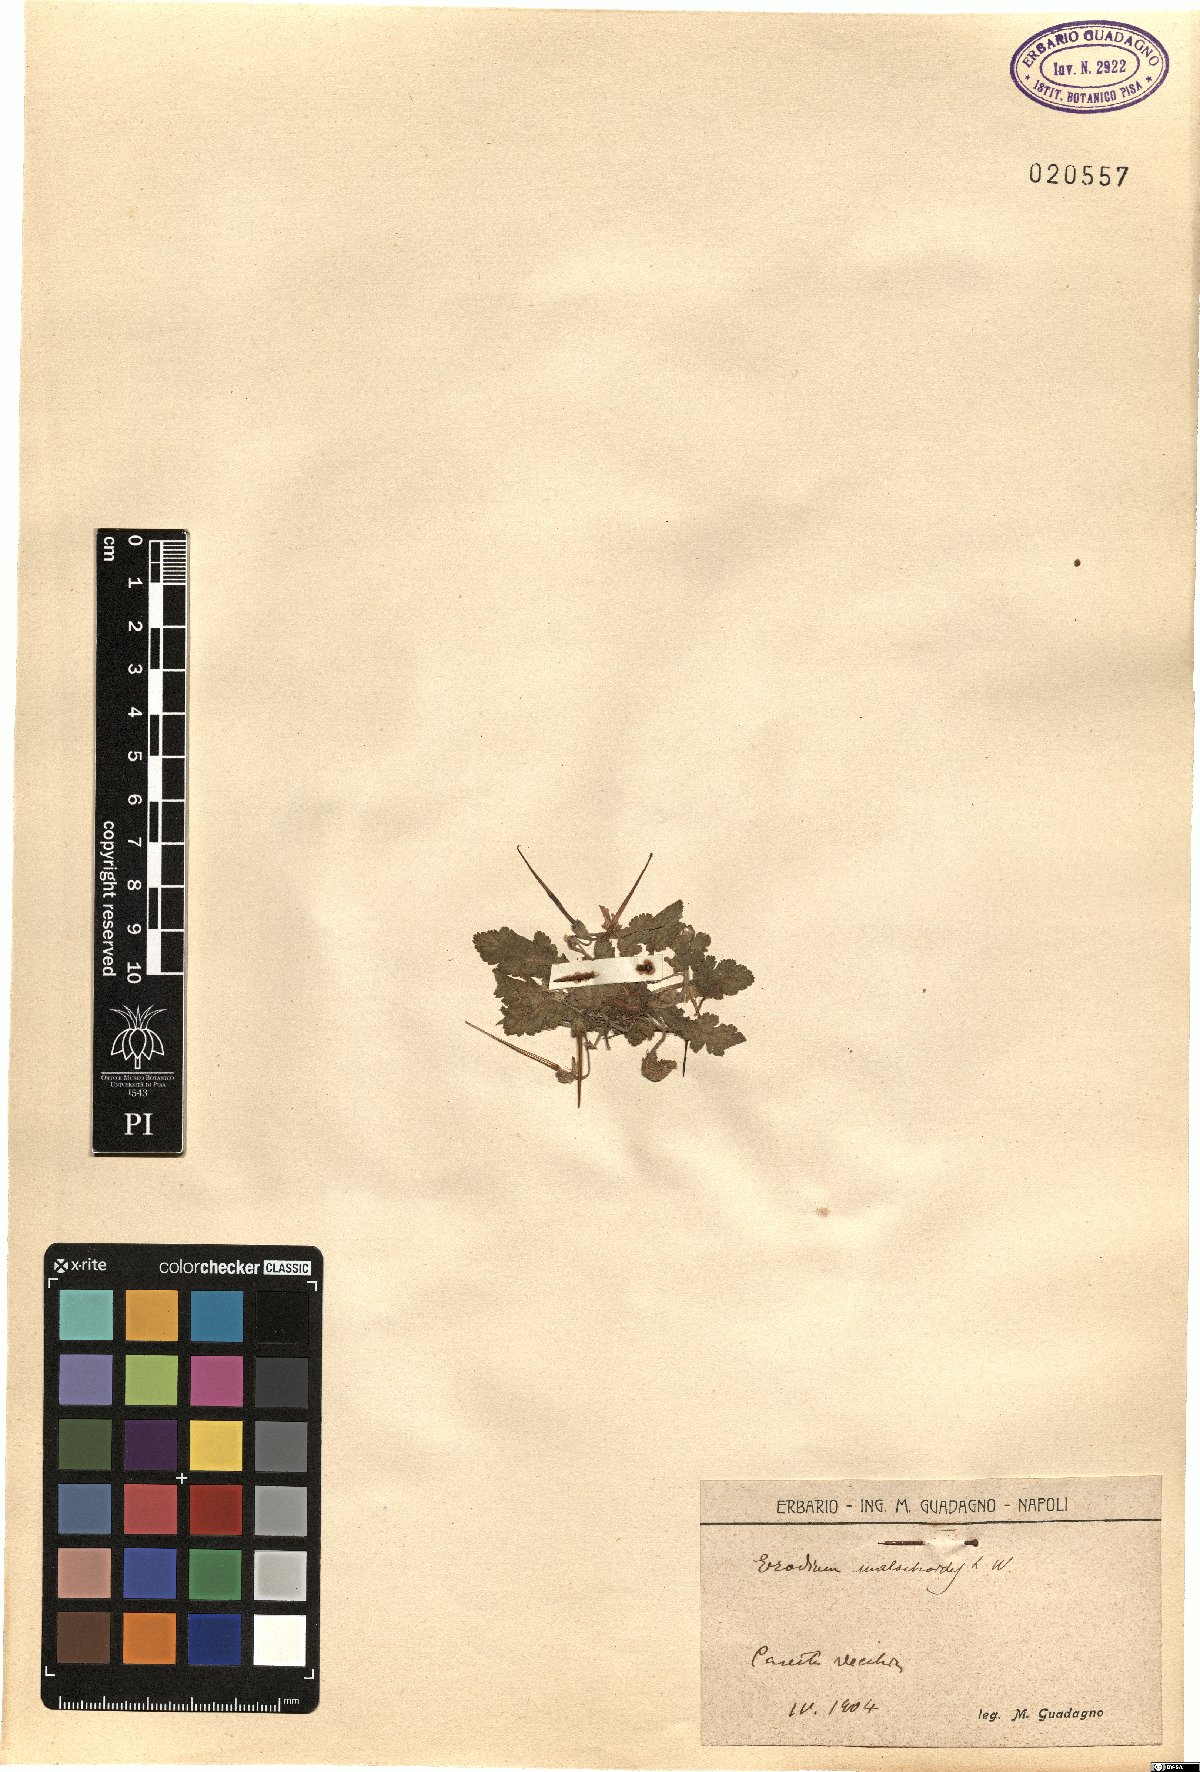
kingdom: Plantae
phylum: Tracheophyta
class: Magnoliopsida
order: Geraniales
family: Geraniaceae
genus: Erodium
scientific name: Erodium malacoides
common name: Soft stork's-bill
